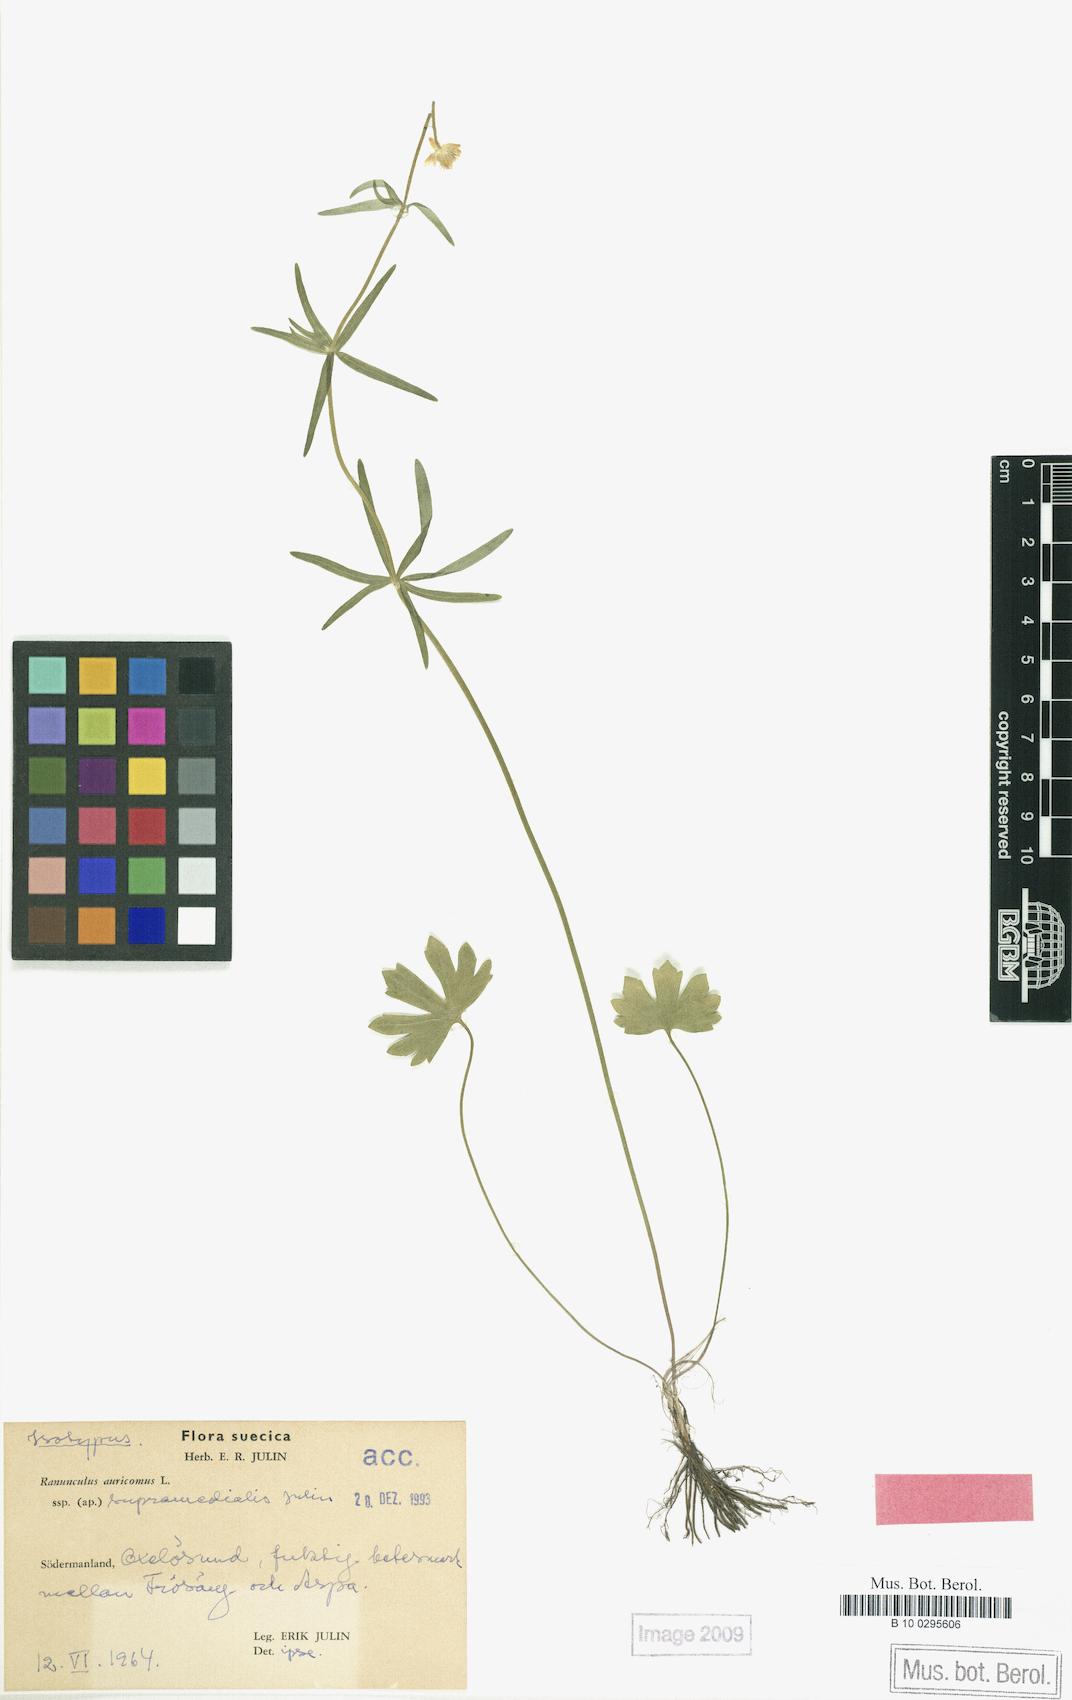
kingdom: Plantae
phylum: Tracheophyta
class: Magnoliopsida
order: Ranunculales
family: Ranunculaceae
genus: Ranunculus
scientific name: Ranunculus supramedialis
